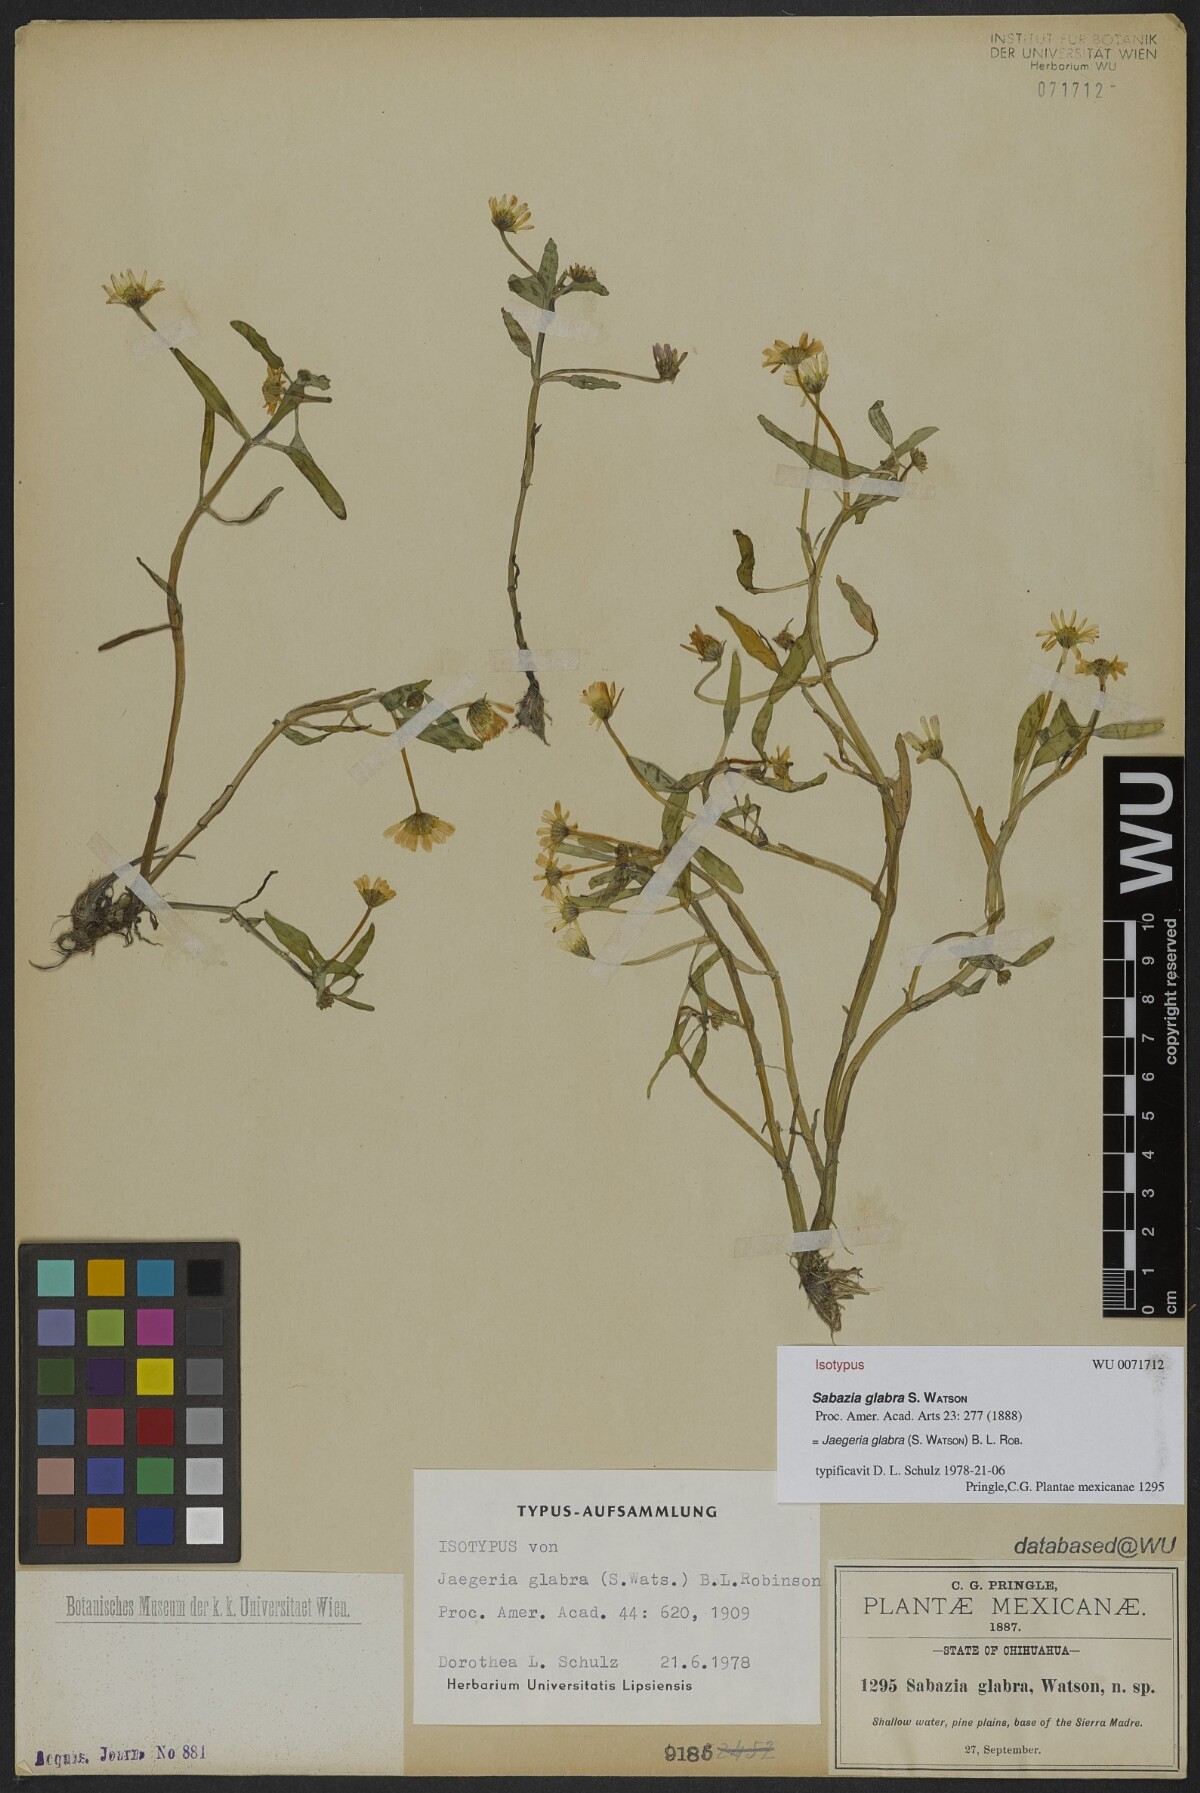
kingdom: Plantae
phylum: Tracheophyta
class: Magnoliopsida
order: Asterales
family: Asteraceae
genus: Jaegeria
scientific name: Jaegeria glabra
